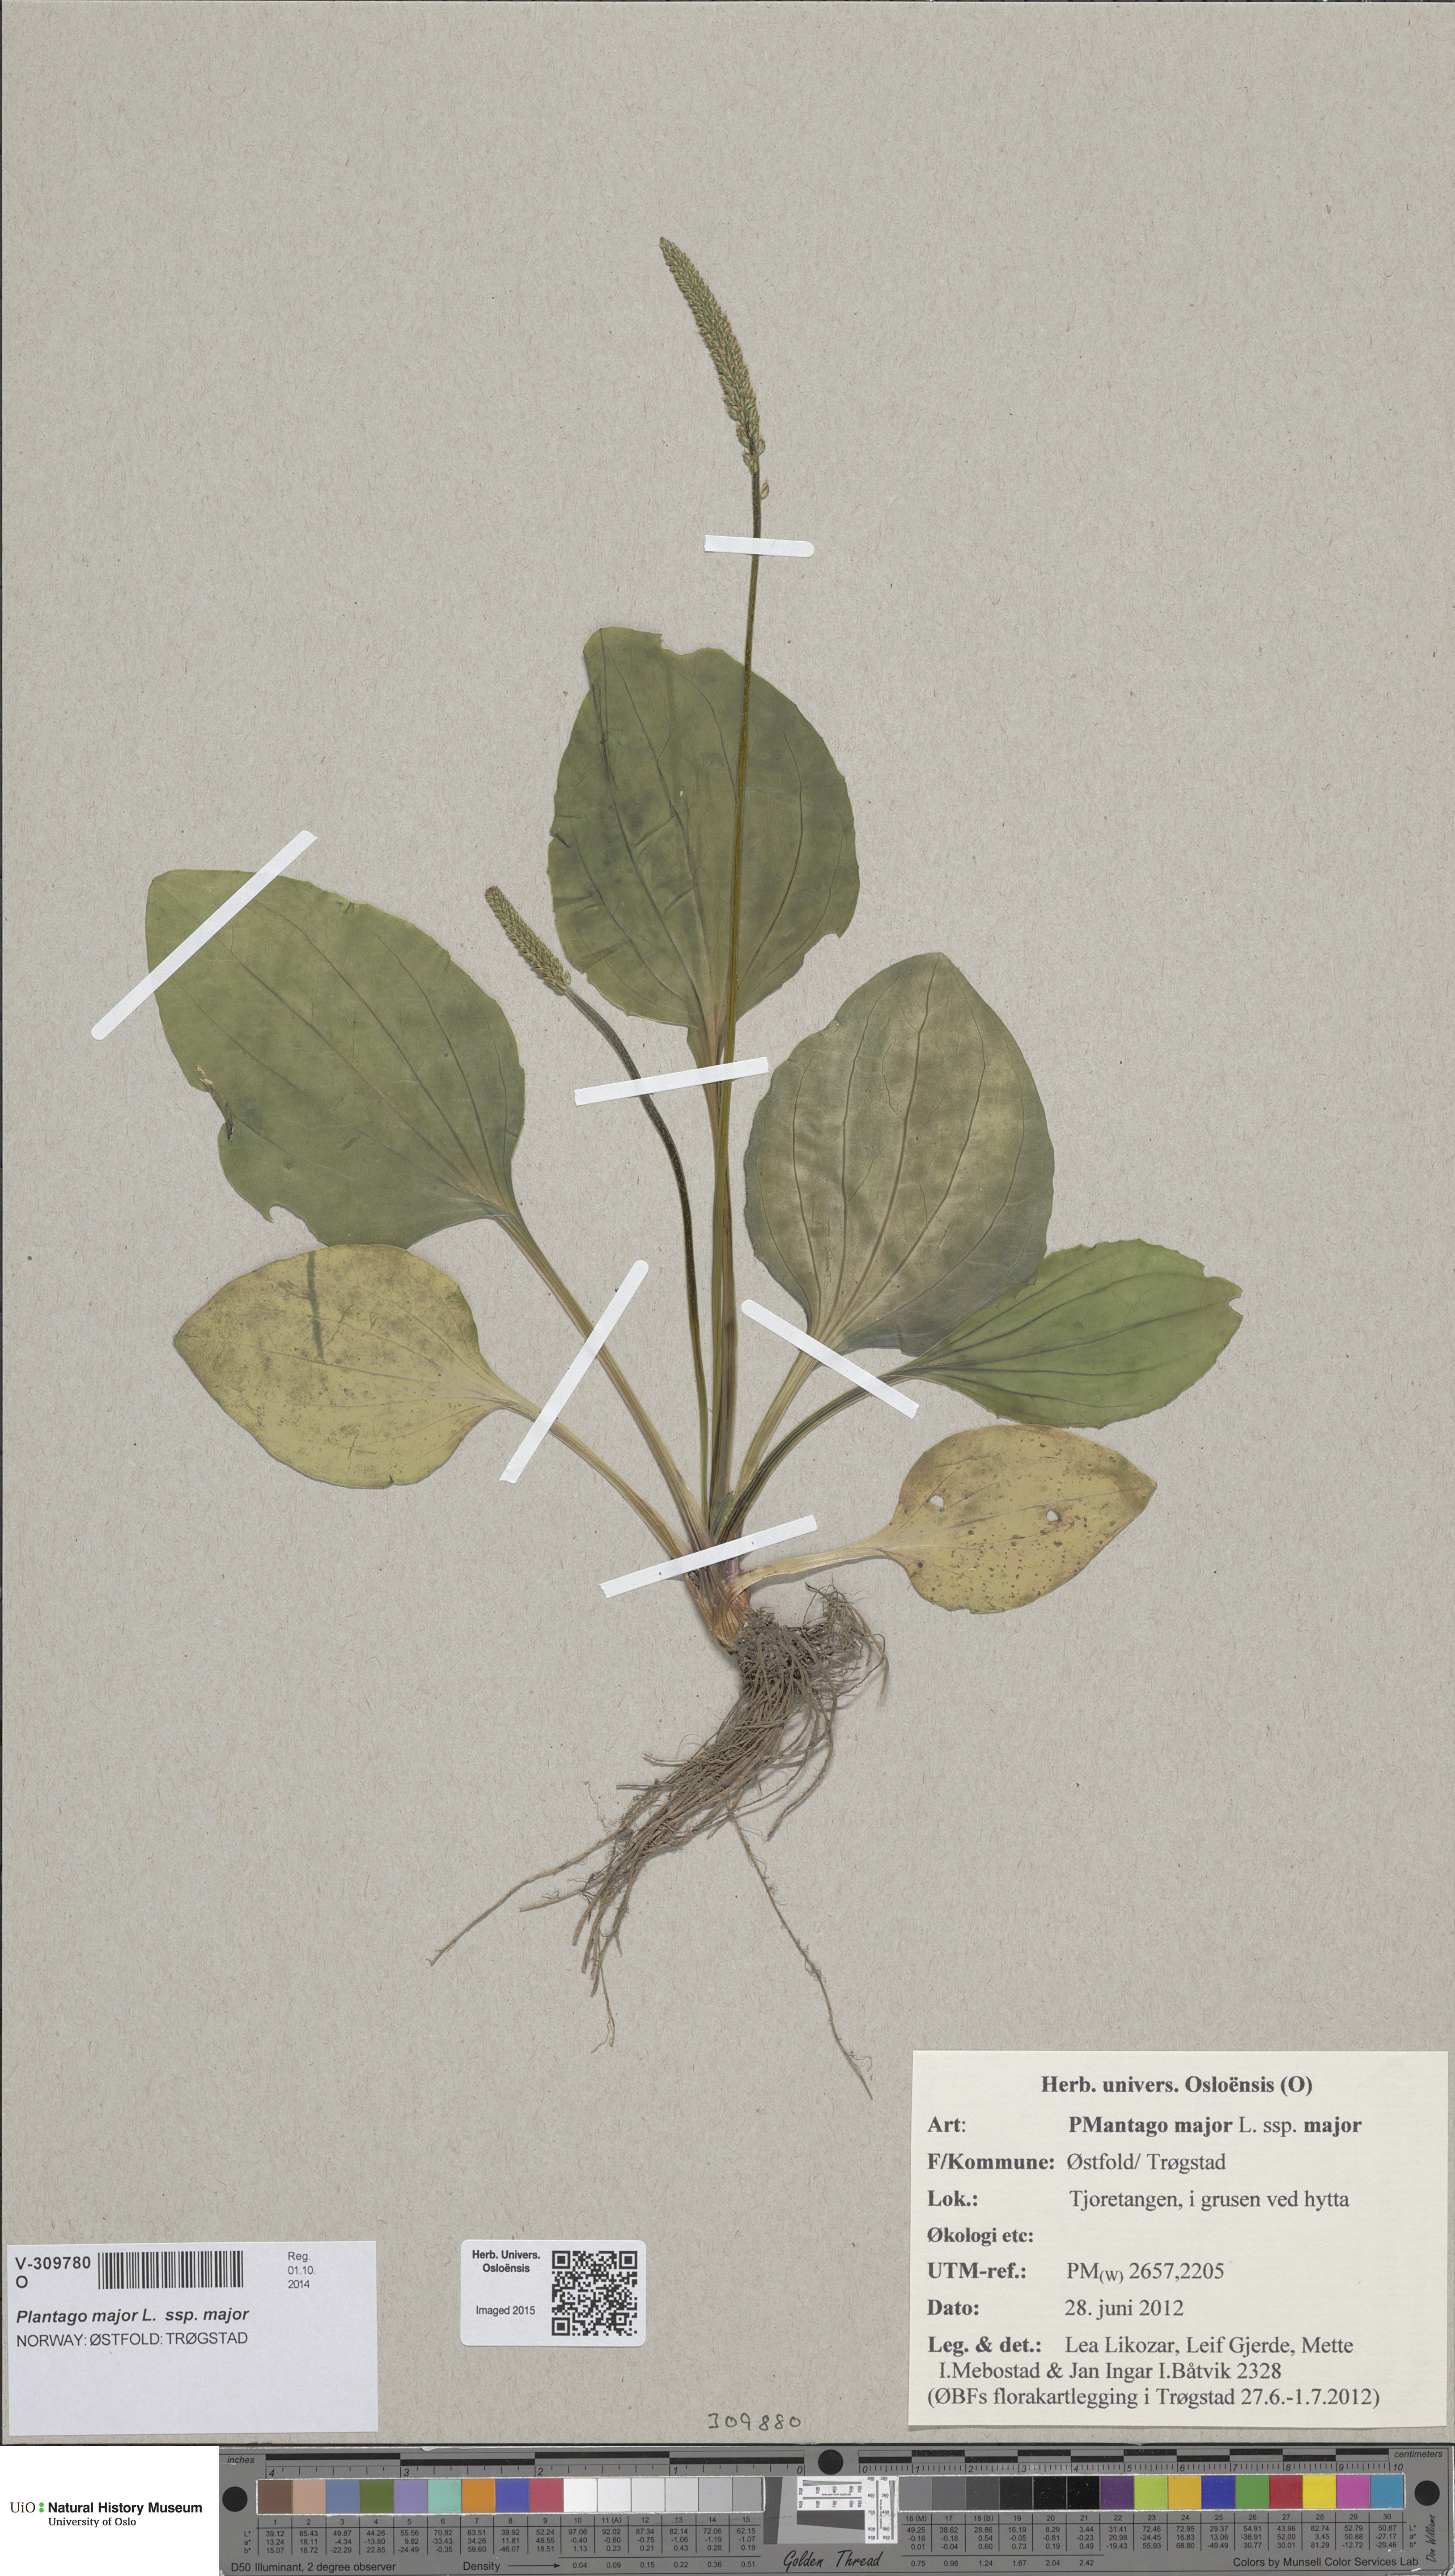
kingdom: Plantae
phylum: Tracheophyta
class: Magnoliopsida
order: Lamiales
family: Plantaginaceae
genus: Plantago
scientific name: Plantago major
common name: Common plantain
